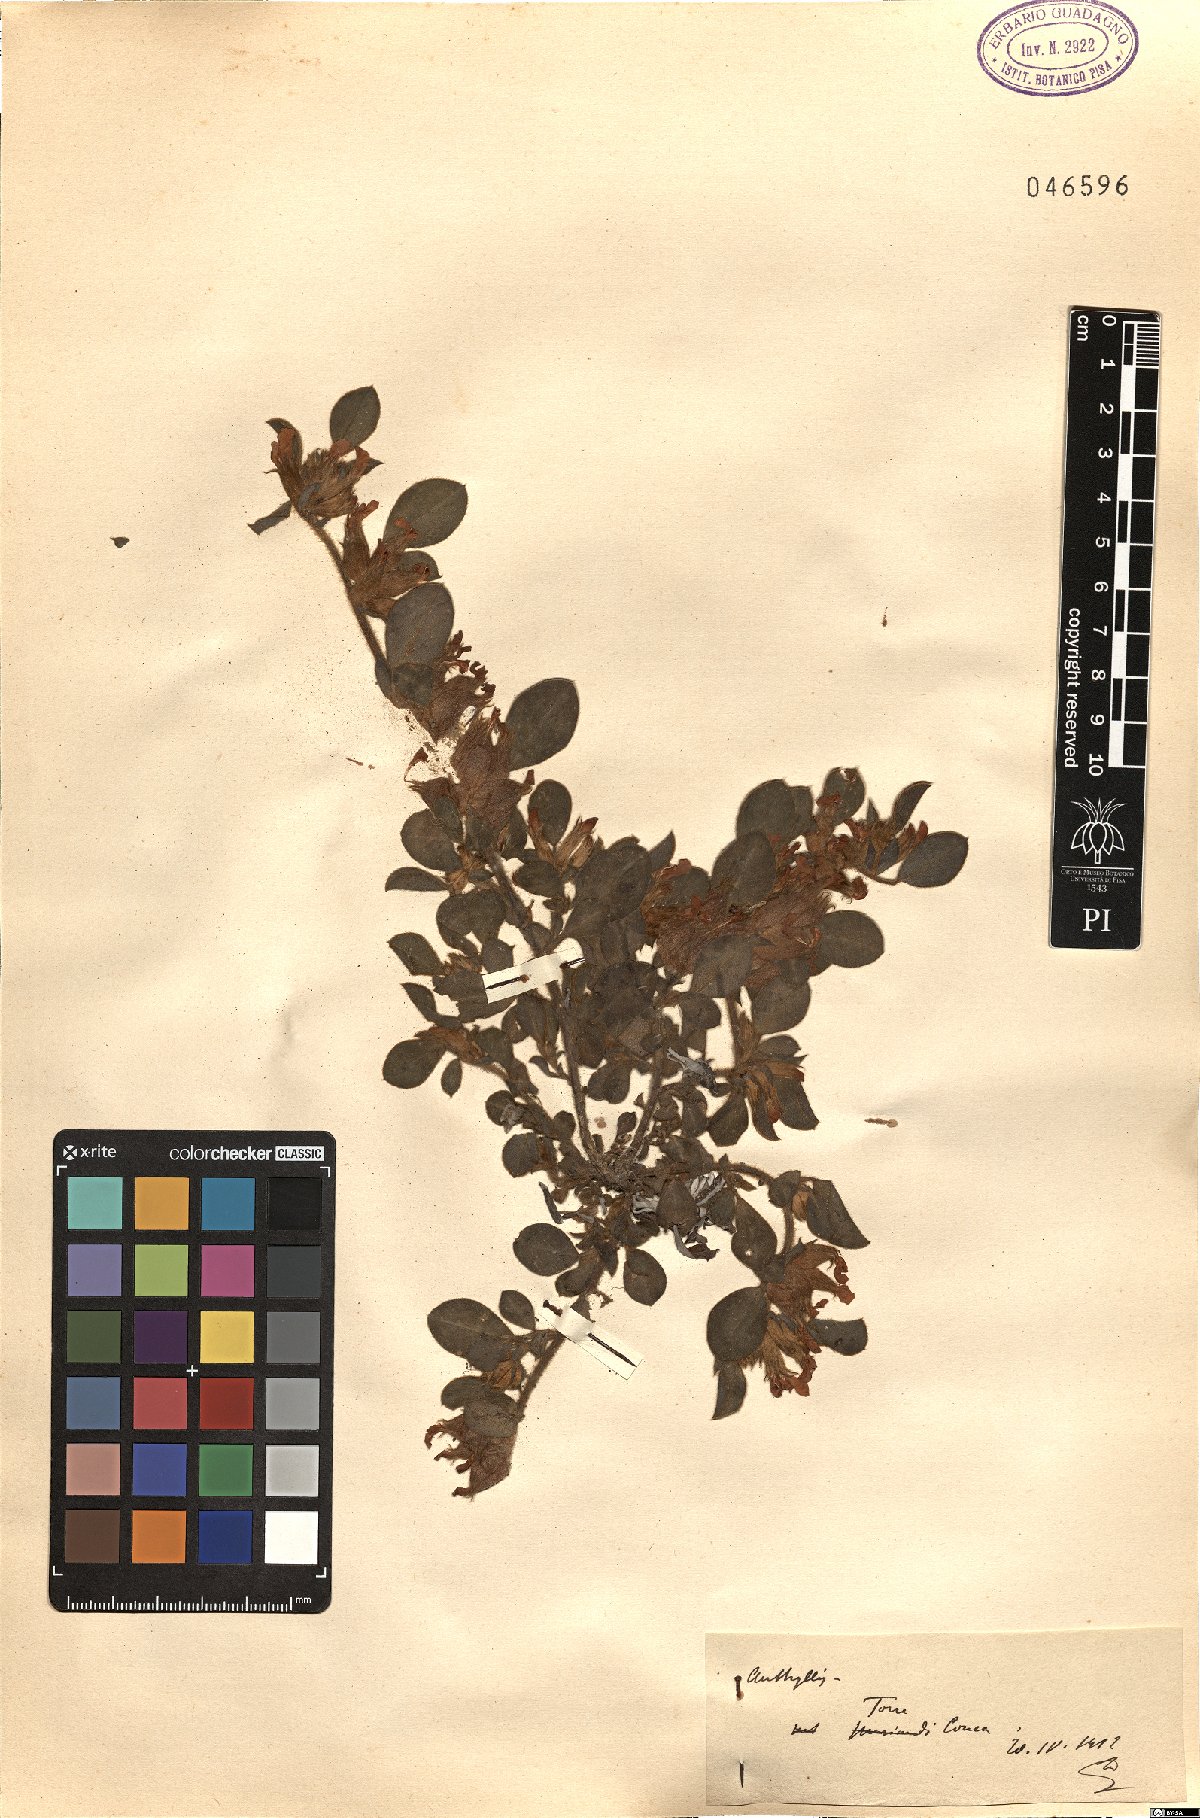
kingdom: Plantae
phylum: Tracheophyta
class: Magnoliopsida
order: Fabales
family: Fabaceae
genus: Anthyllis
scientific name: Anthyllis
